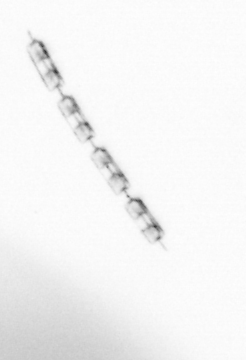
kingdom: Chromista
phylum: Ochrophyta
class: Bacillariophyceae
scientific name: Bacillariophyceae
